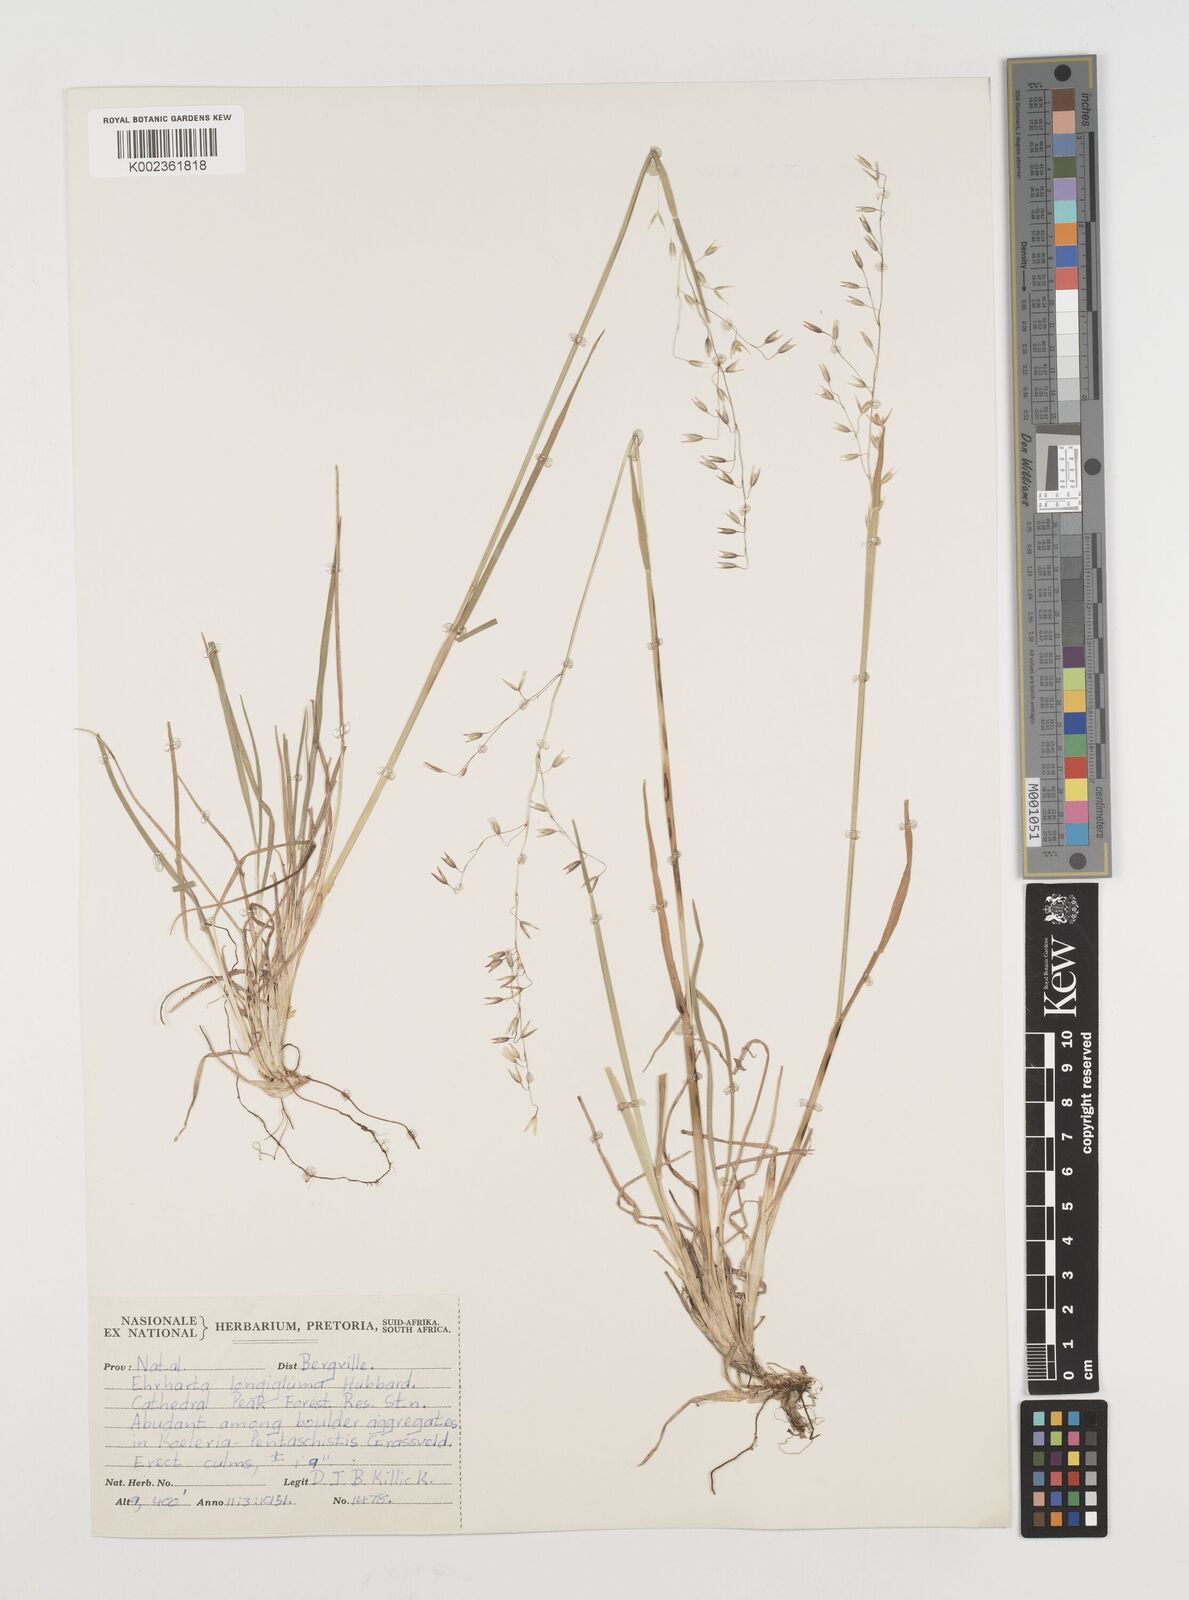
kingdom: Plantae
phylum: Tracheophyta
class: Liliopsida
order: Poales
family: Poaceae
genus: Ehrharta
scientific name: Ehrharta longigluma
